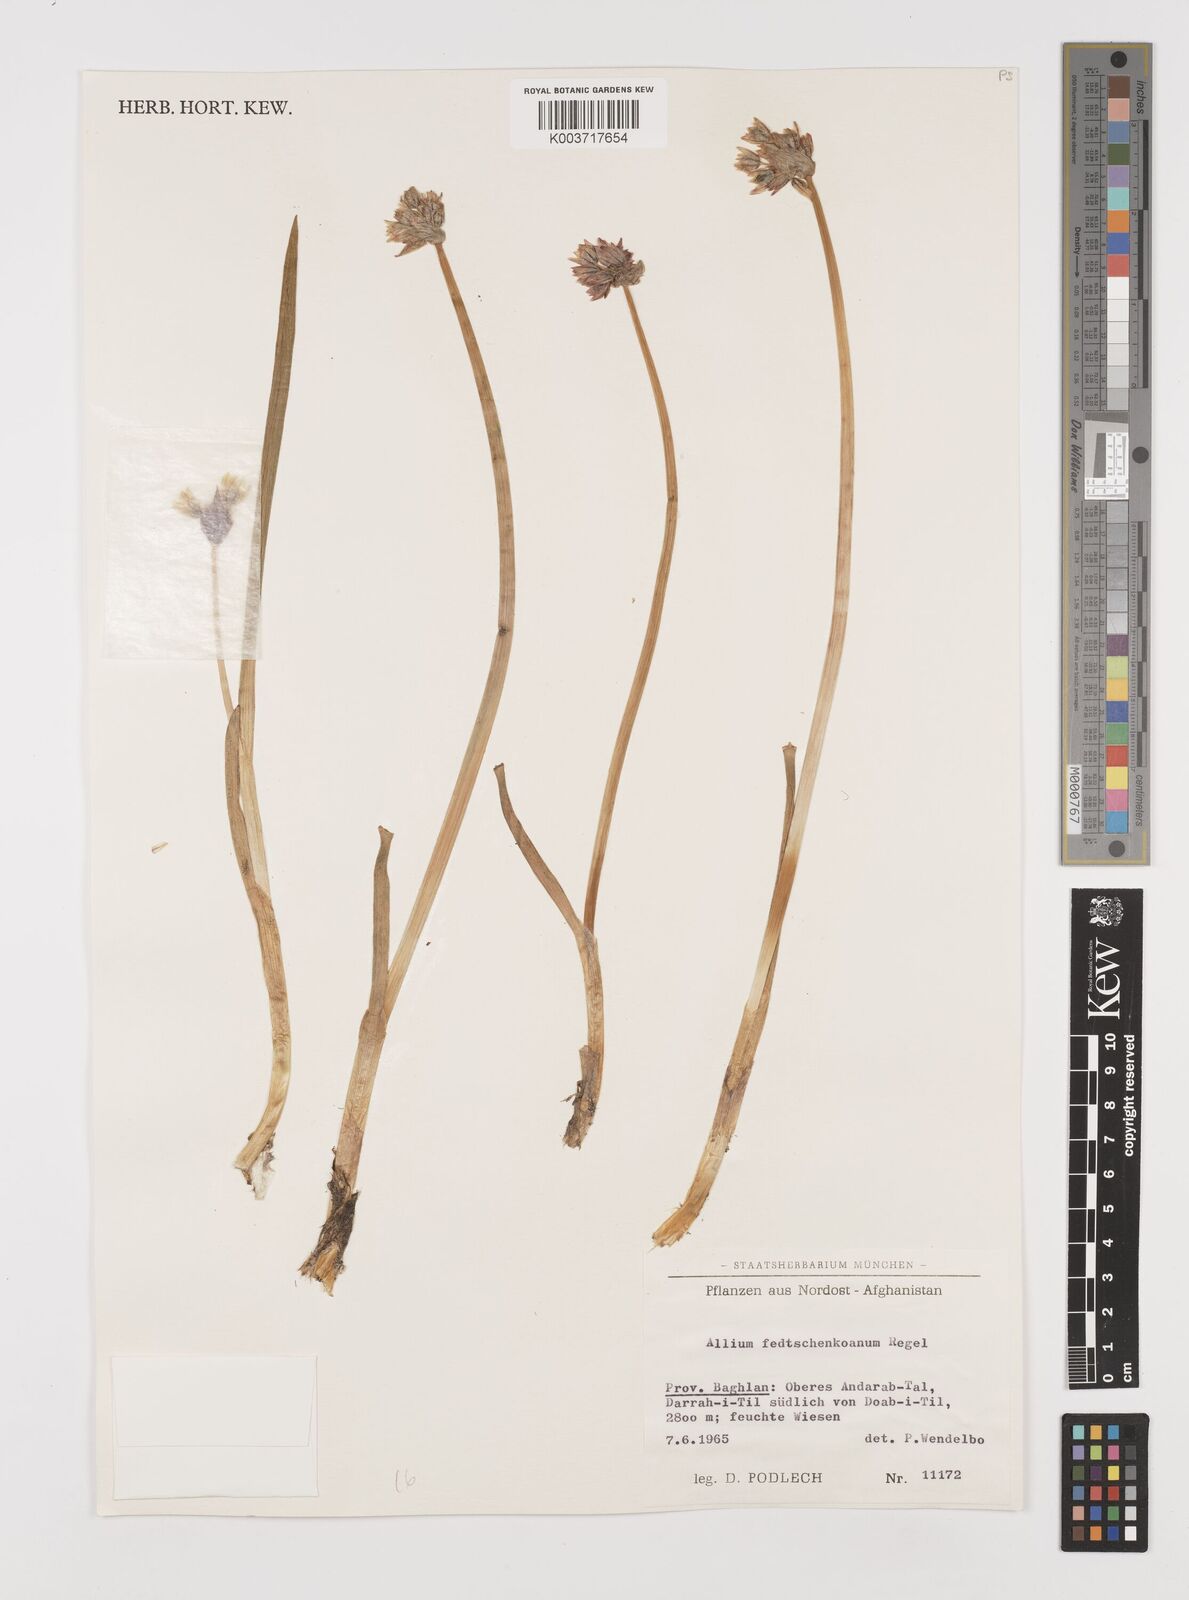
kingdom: Plantae
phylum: Tracheophyta
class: Liliopsida
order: Asparagales
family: Amaryllidaceae
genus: Allium
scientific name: Allium atrosanguineum
